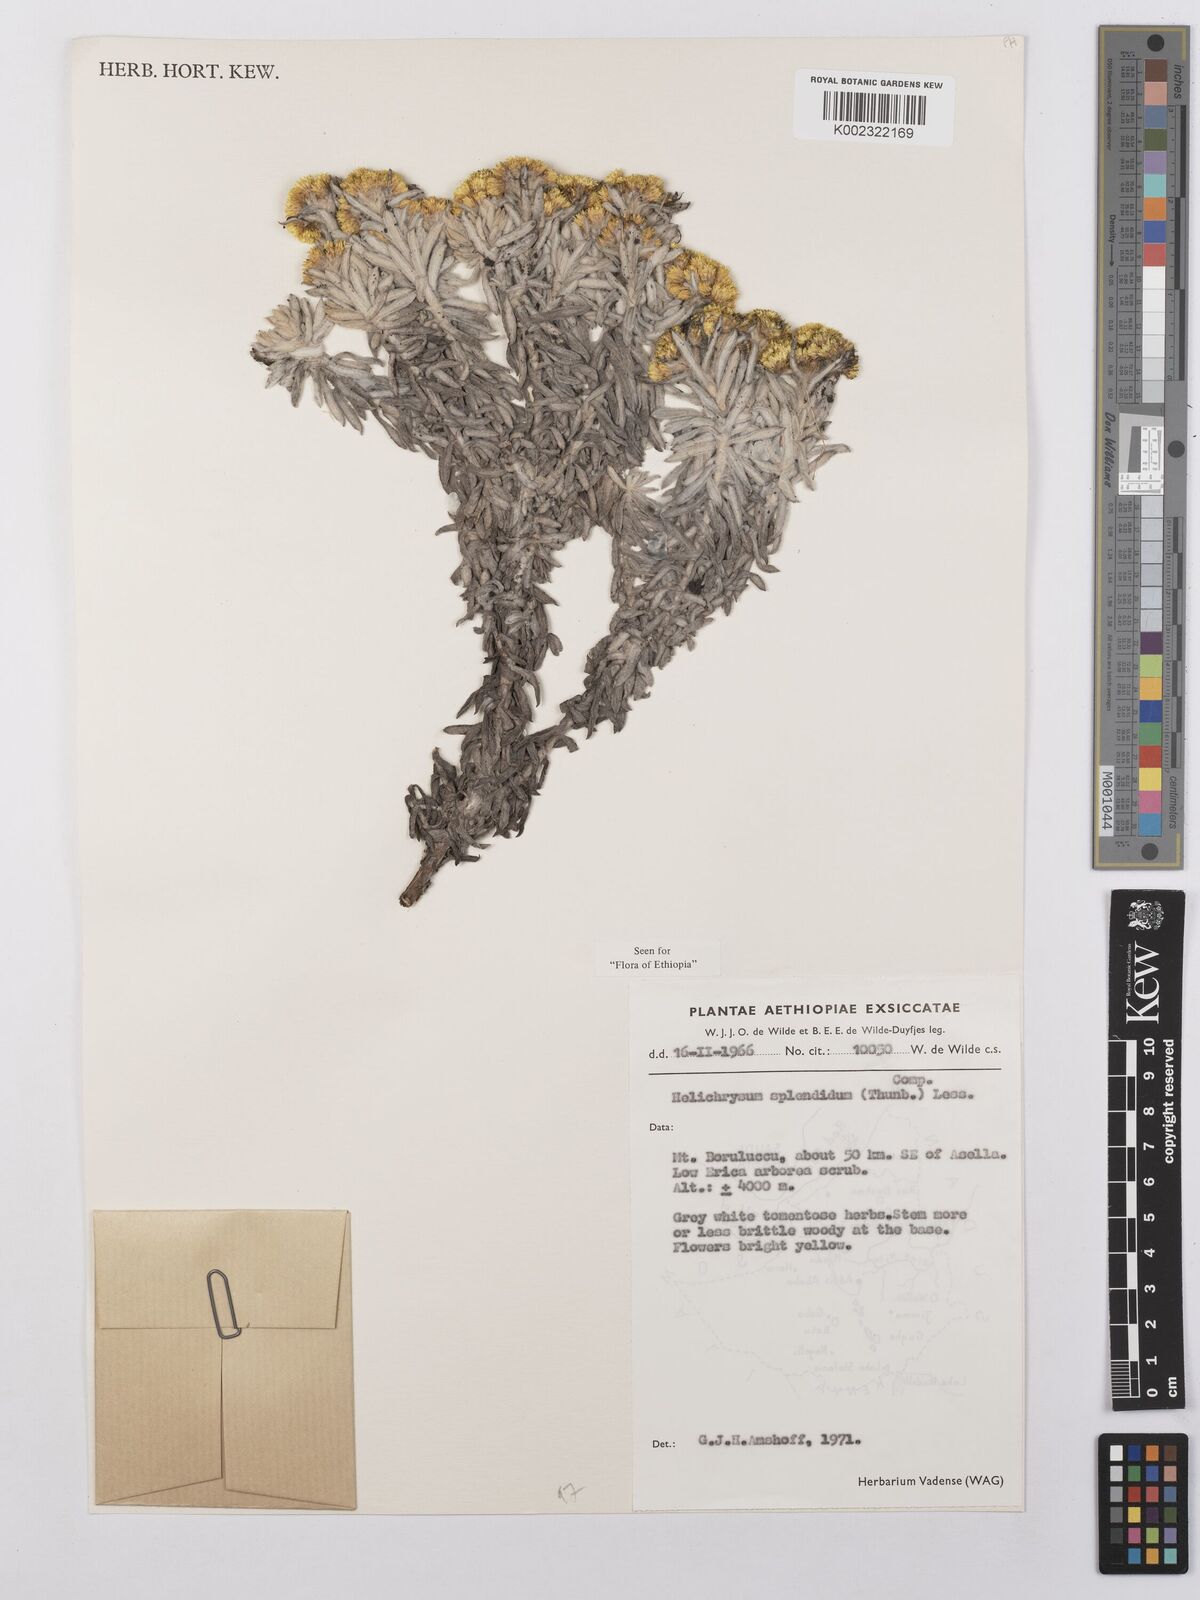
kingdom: Plantae
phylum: Tracheophyta
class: Magnoliopsida
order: Asterales
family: Asteraceae
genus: Helichrysum
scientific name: Helichrysum splendidum
